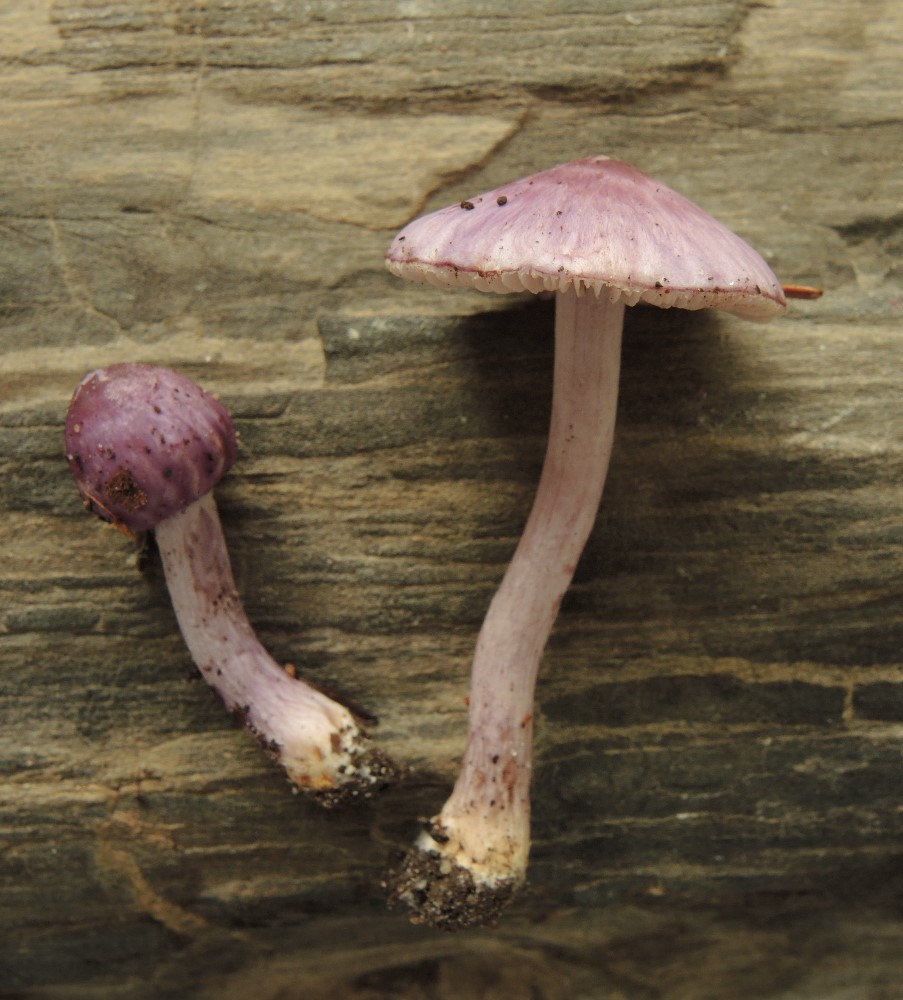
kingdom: Fungi
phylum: Basidiomycota
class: Agaricomycetes
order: Agaricales
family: Inocybaceae
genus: Inocybe
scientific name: Inocybe geophylla
